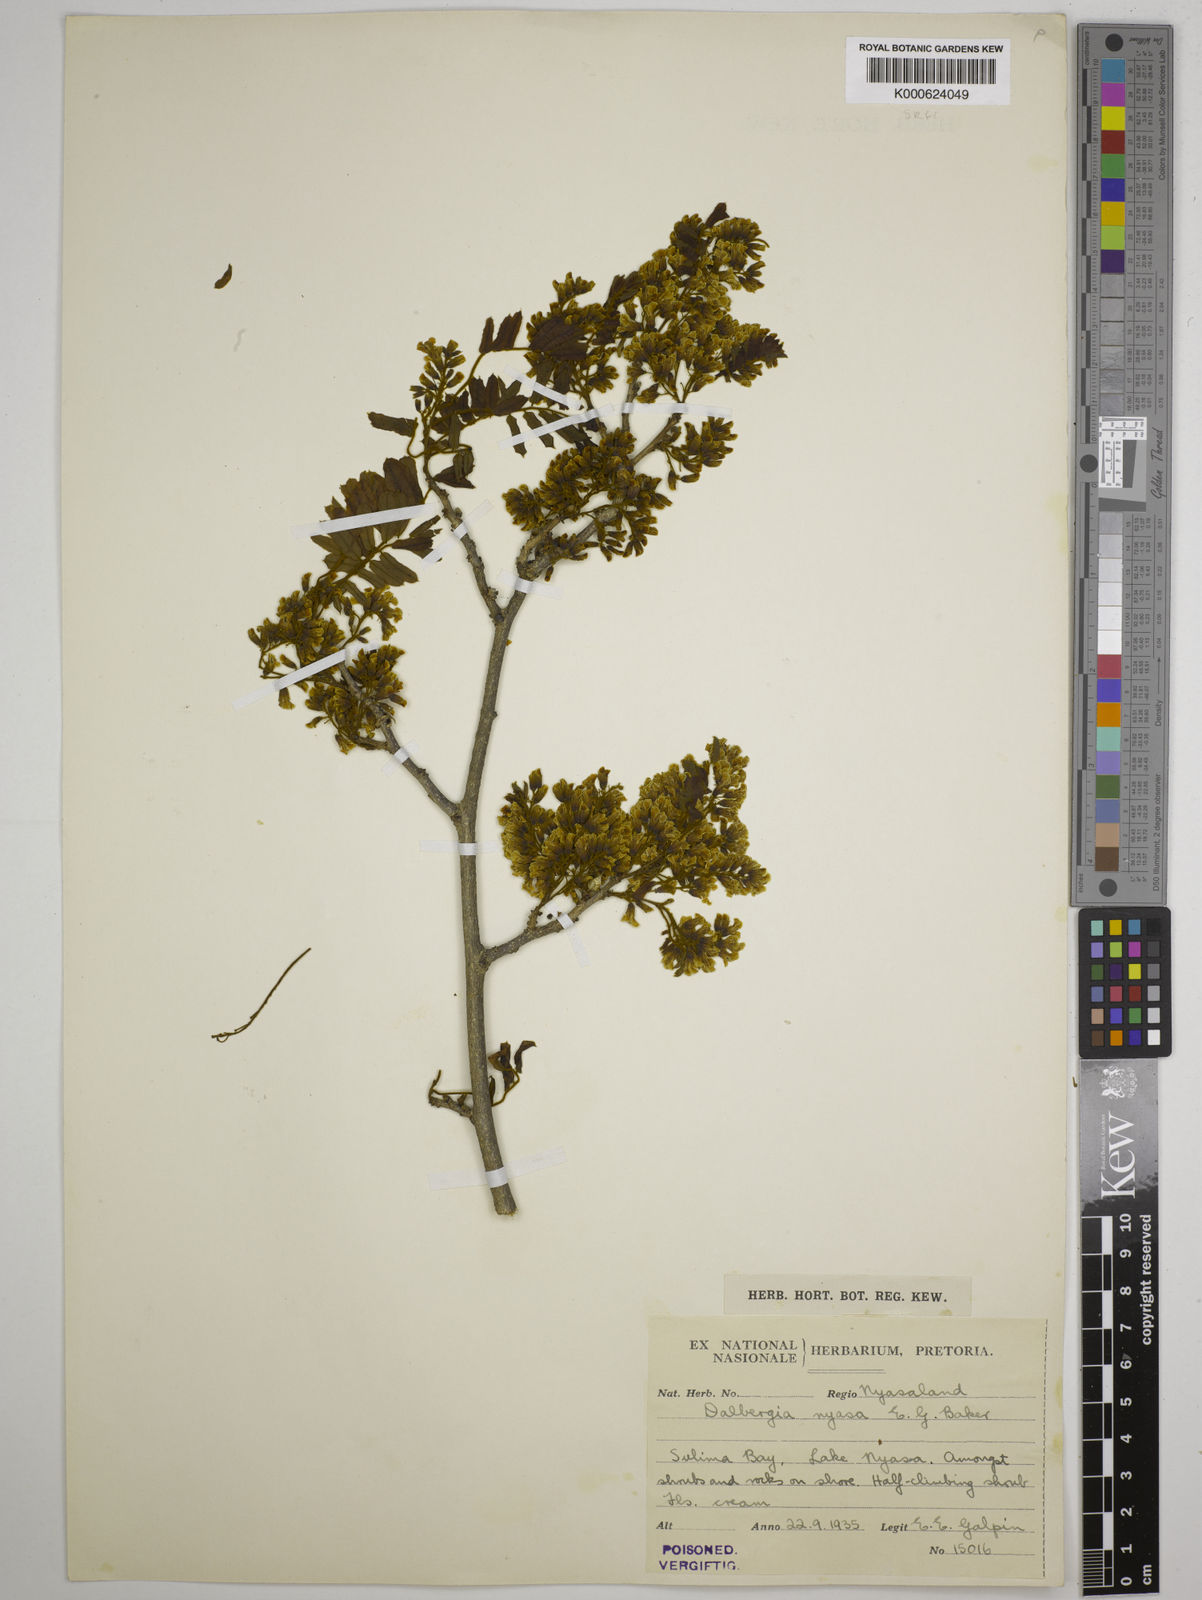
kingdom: Plantae
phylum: Tracheophyta
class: Magnoliopsida
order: Fabales
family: Fabaceae
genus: Dalbergia
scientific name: Dalbergia arbutifolia
